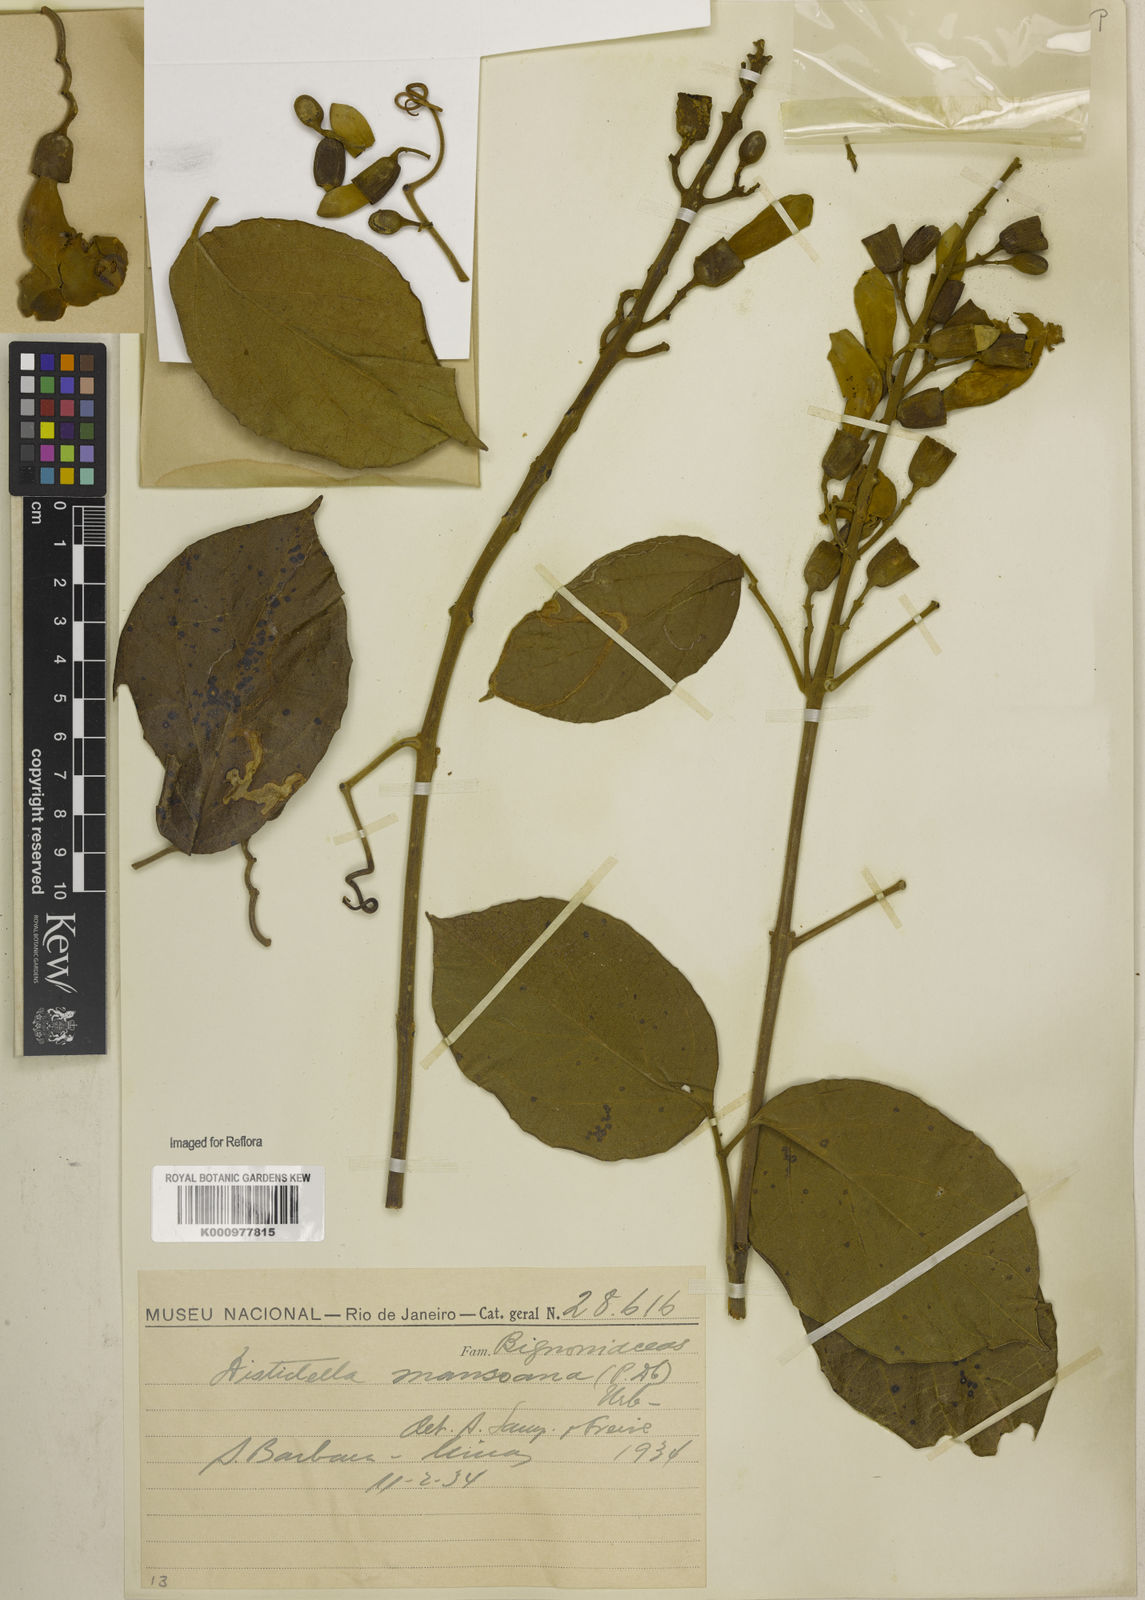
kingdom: Plantae
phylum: Tracheophyta
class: Magnoliopsida
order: Lamiales
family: Bignoniaceae
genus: Amphilophium
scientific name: Amphilophium mansoanum
